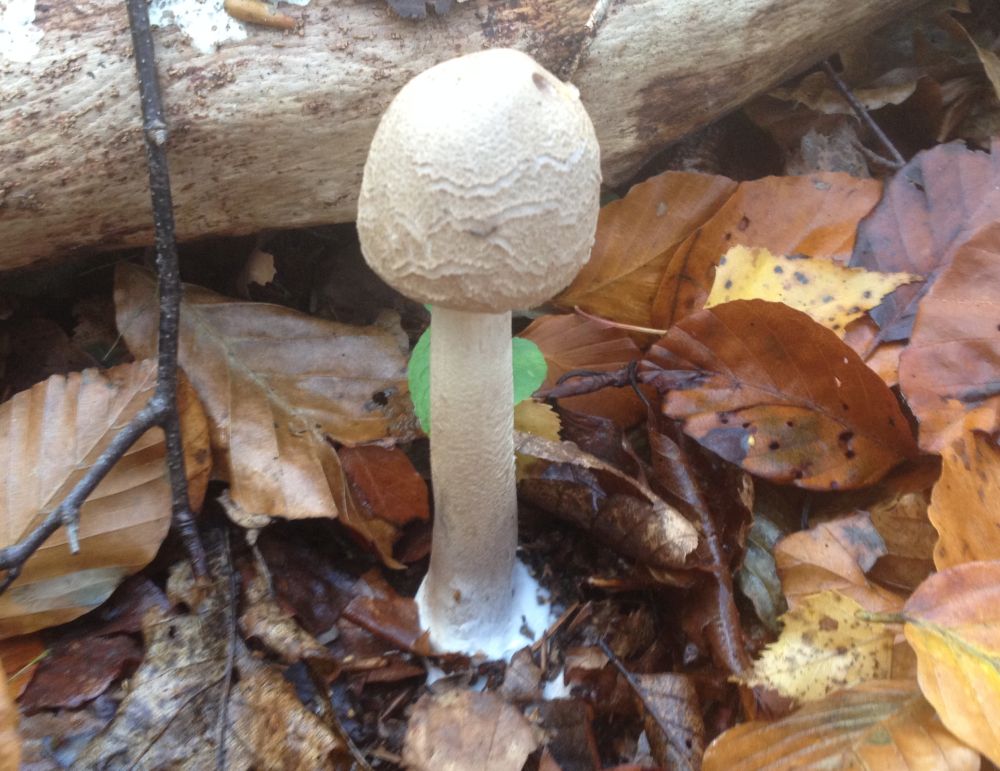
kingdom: Fungi
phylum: Basidiomycota
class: Agaricomycetes
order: Agaricales
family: Agaricaceae
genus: Macrolepiota
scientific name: Macrolepiota
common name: kæmpeparasolhat
